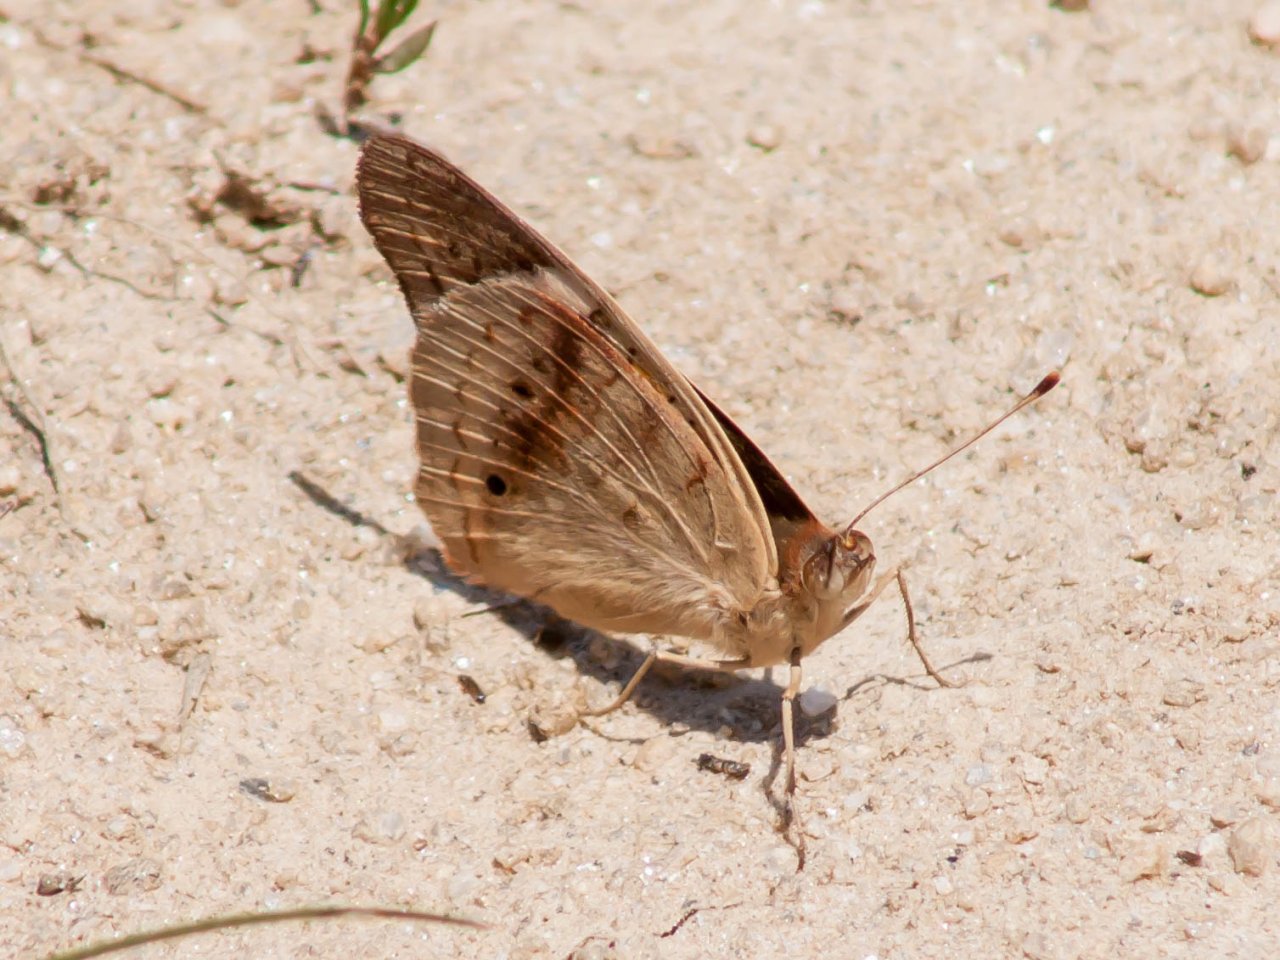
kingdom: Animalia
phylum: Arthropoda
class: Insecta
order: Lepidoptera
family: Nymphalidae
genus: Junonia
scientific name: Junonia coenia
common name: Common Buckeye
